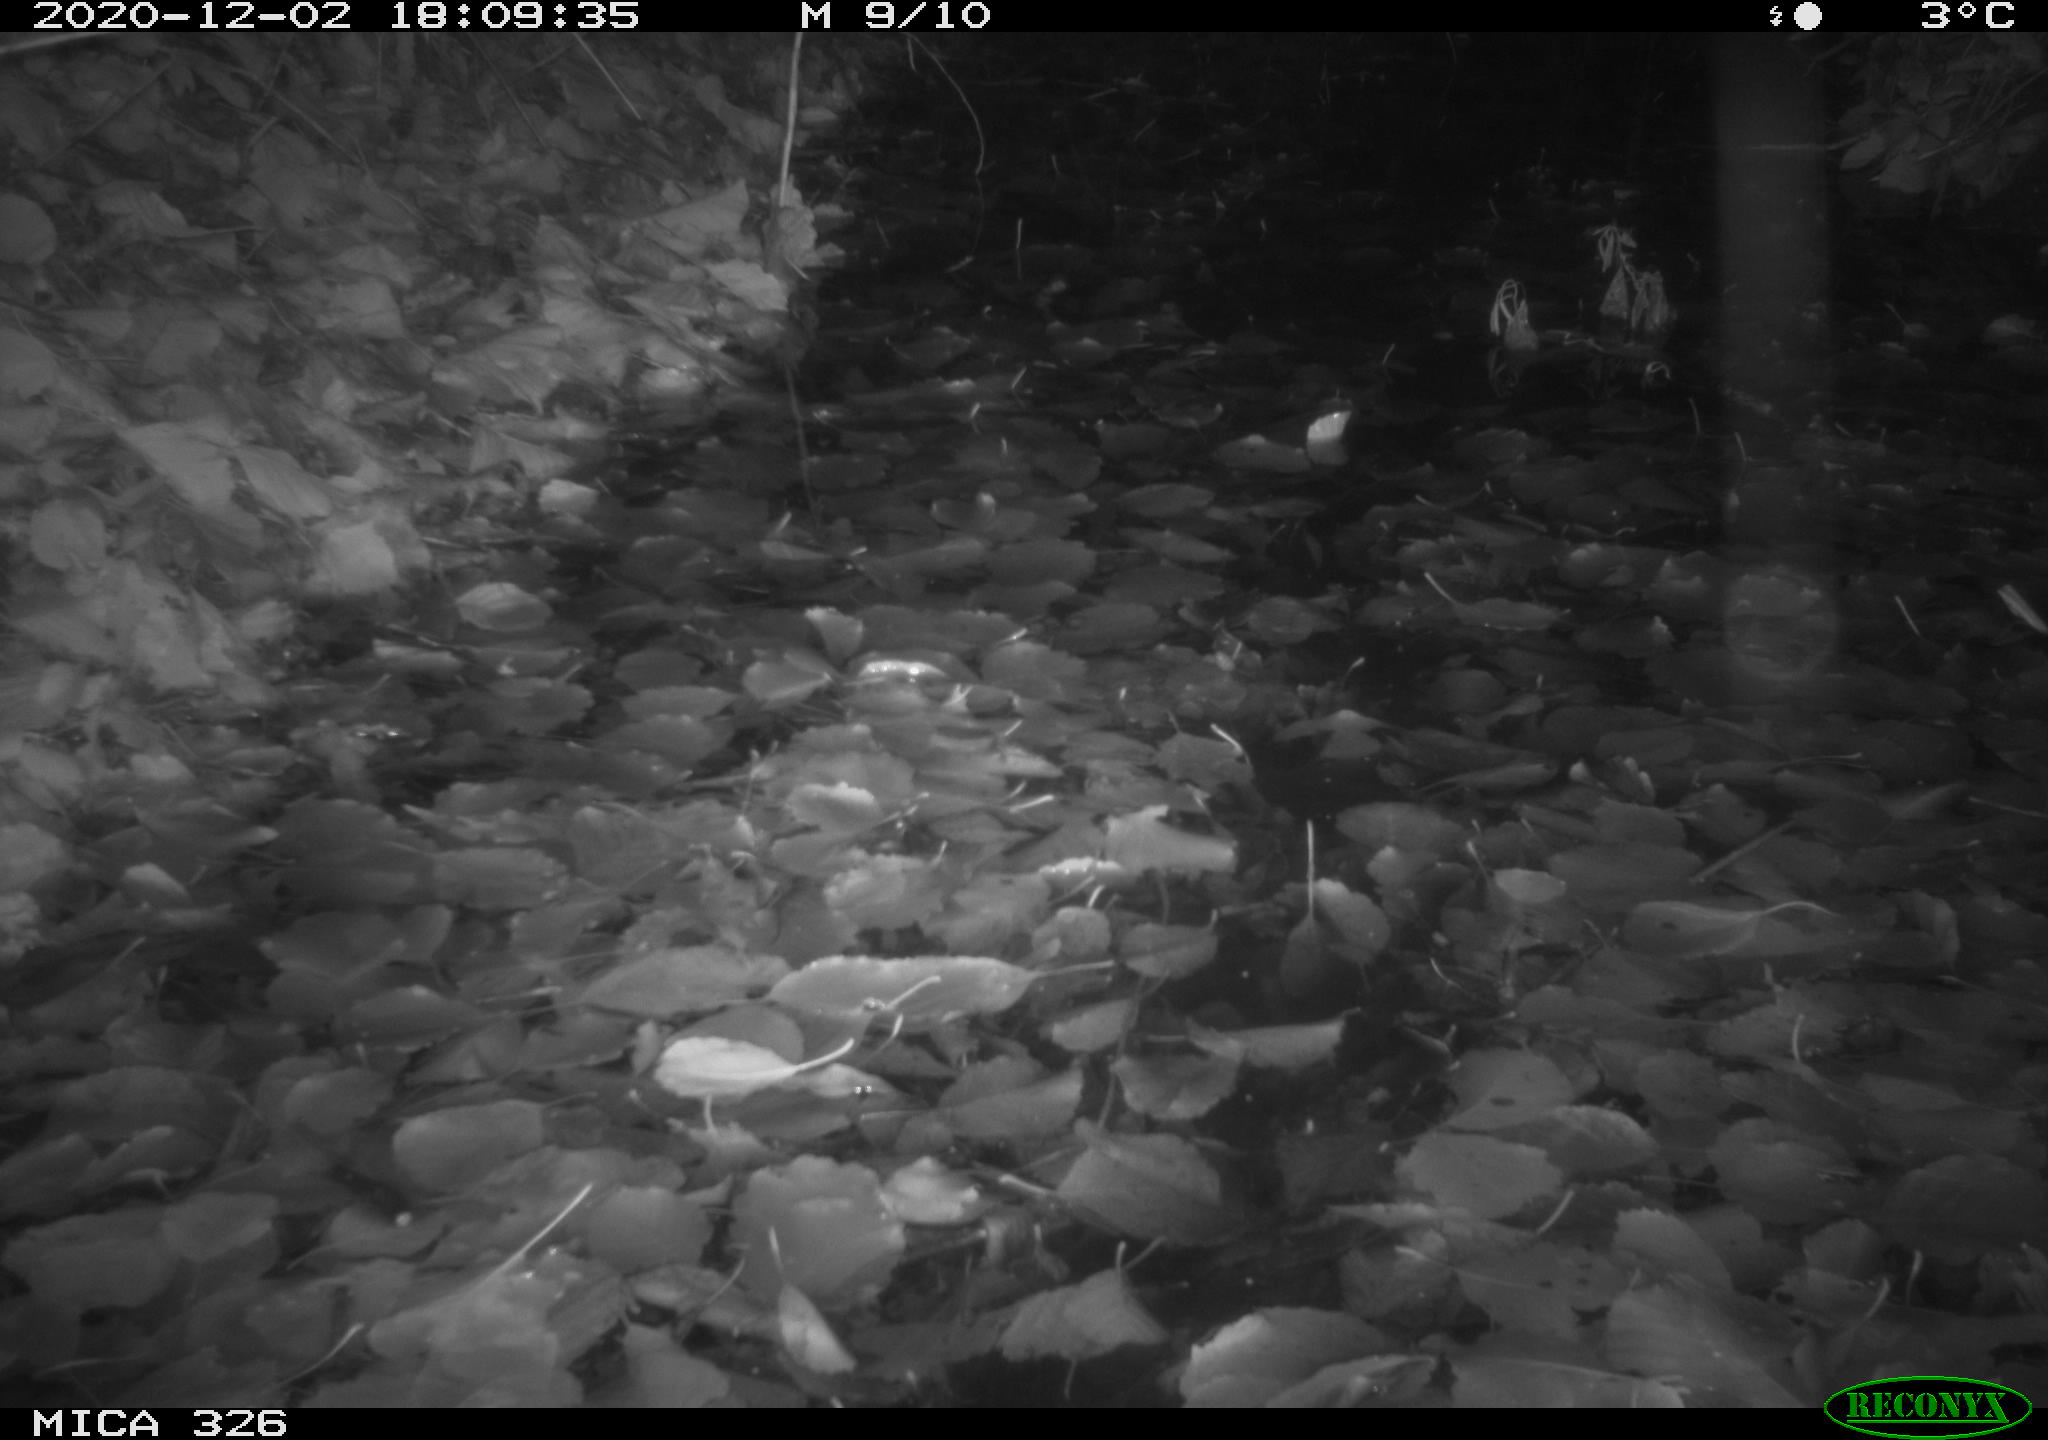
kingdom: Animalia
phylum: Chordata
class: Mammalia
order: Carnivora
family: Mustelidae
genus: Lutra
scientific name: Lutra lutra
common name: European otter
